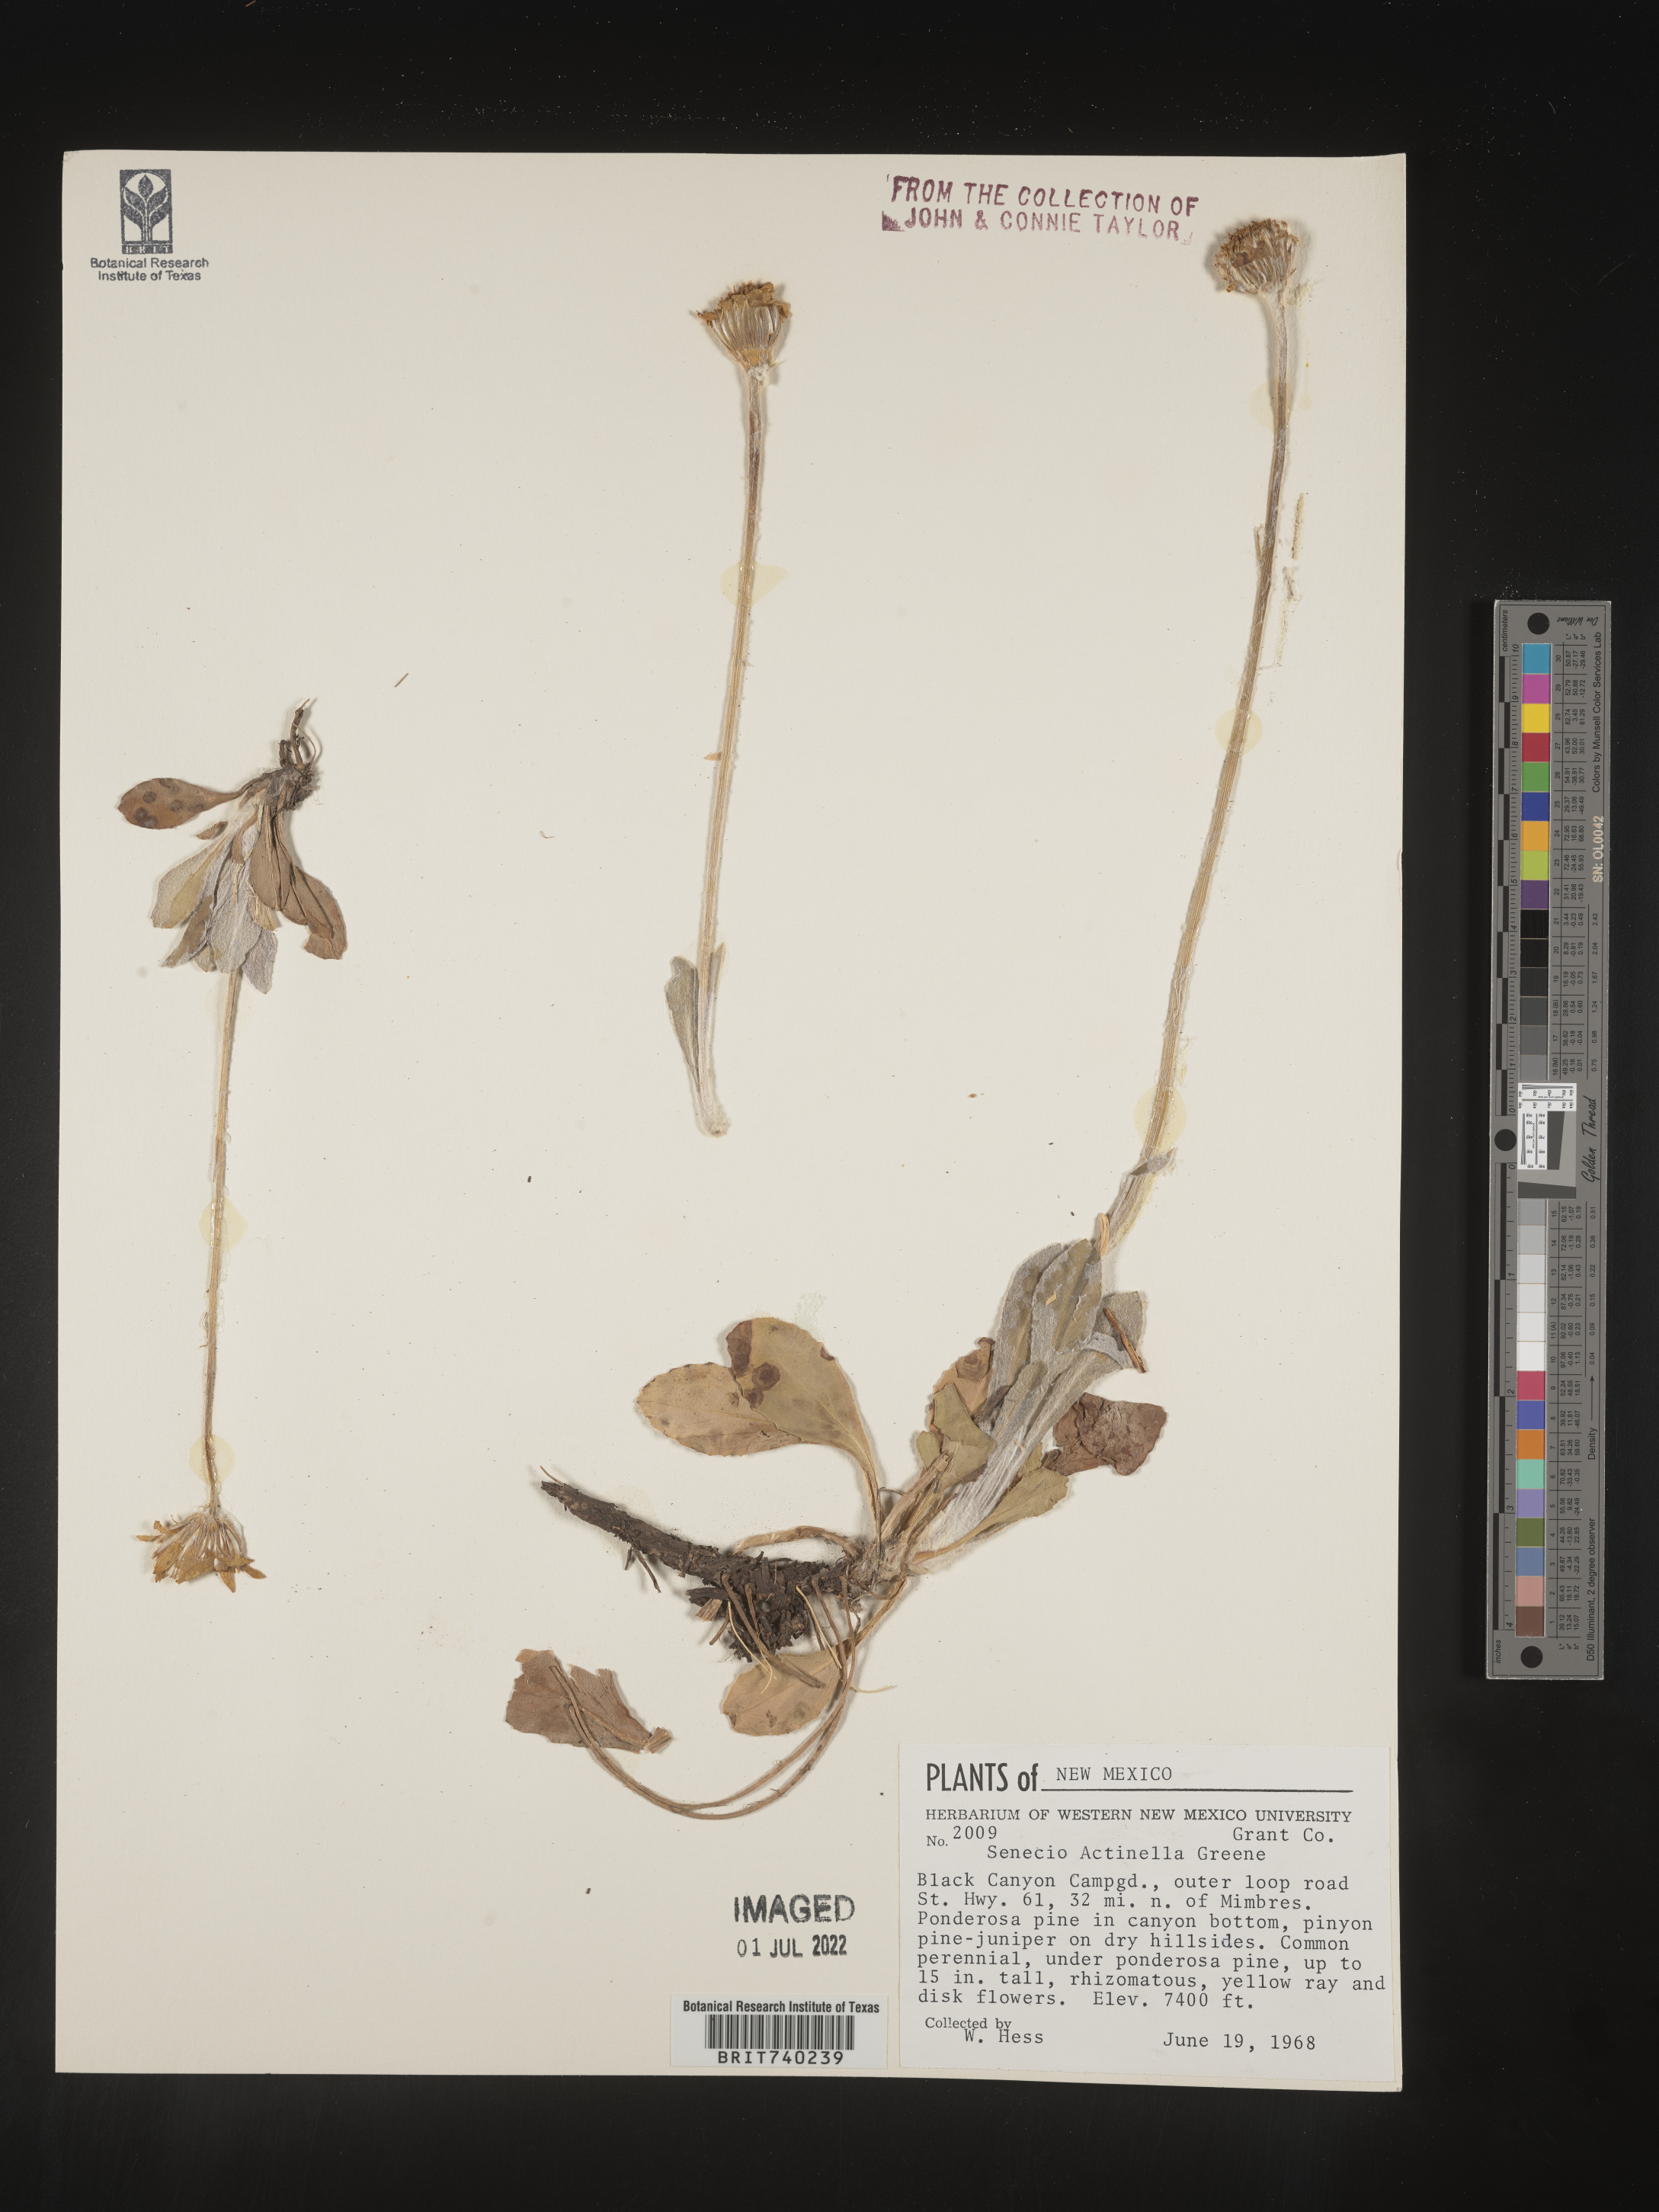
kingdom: Plantae
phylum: Tracheophyta
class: Magnoliopsida
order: Asterales
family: Asteraceae
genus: Packera
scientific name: Packera actinella
